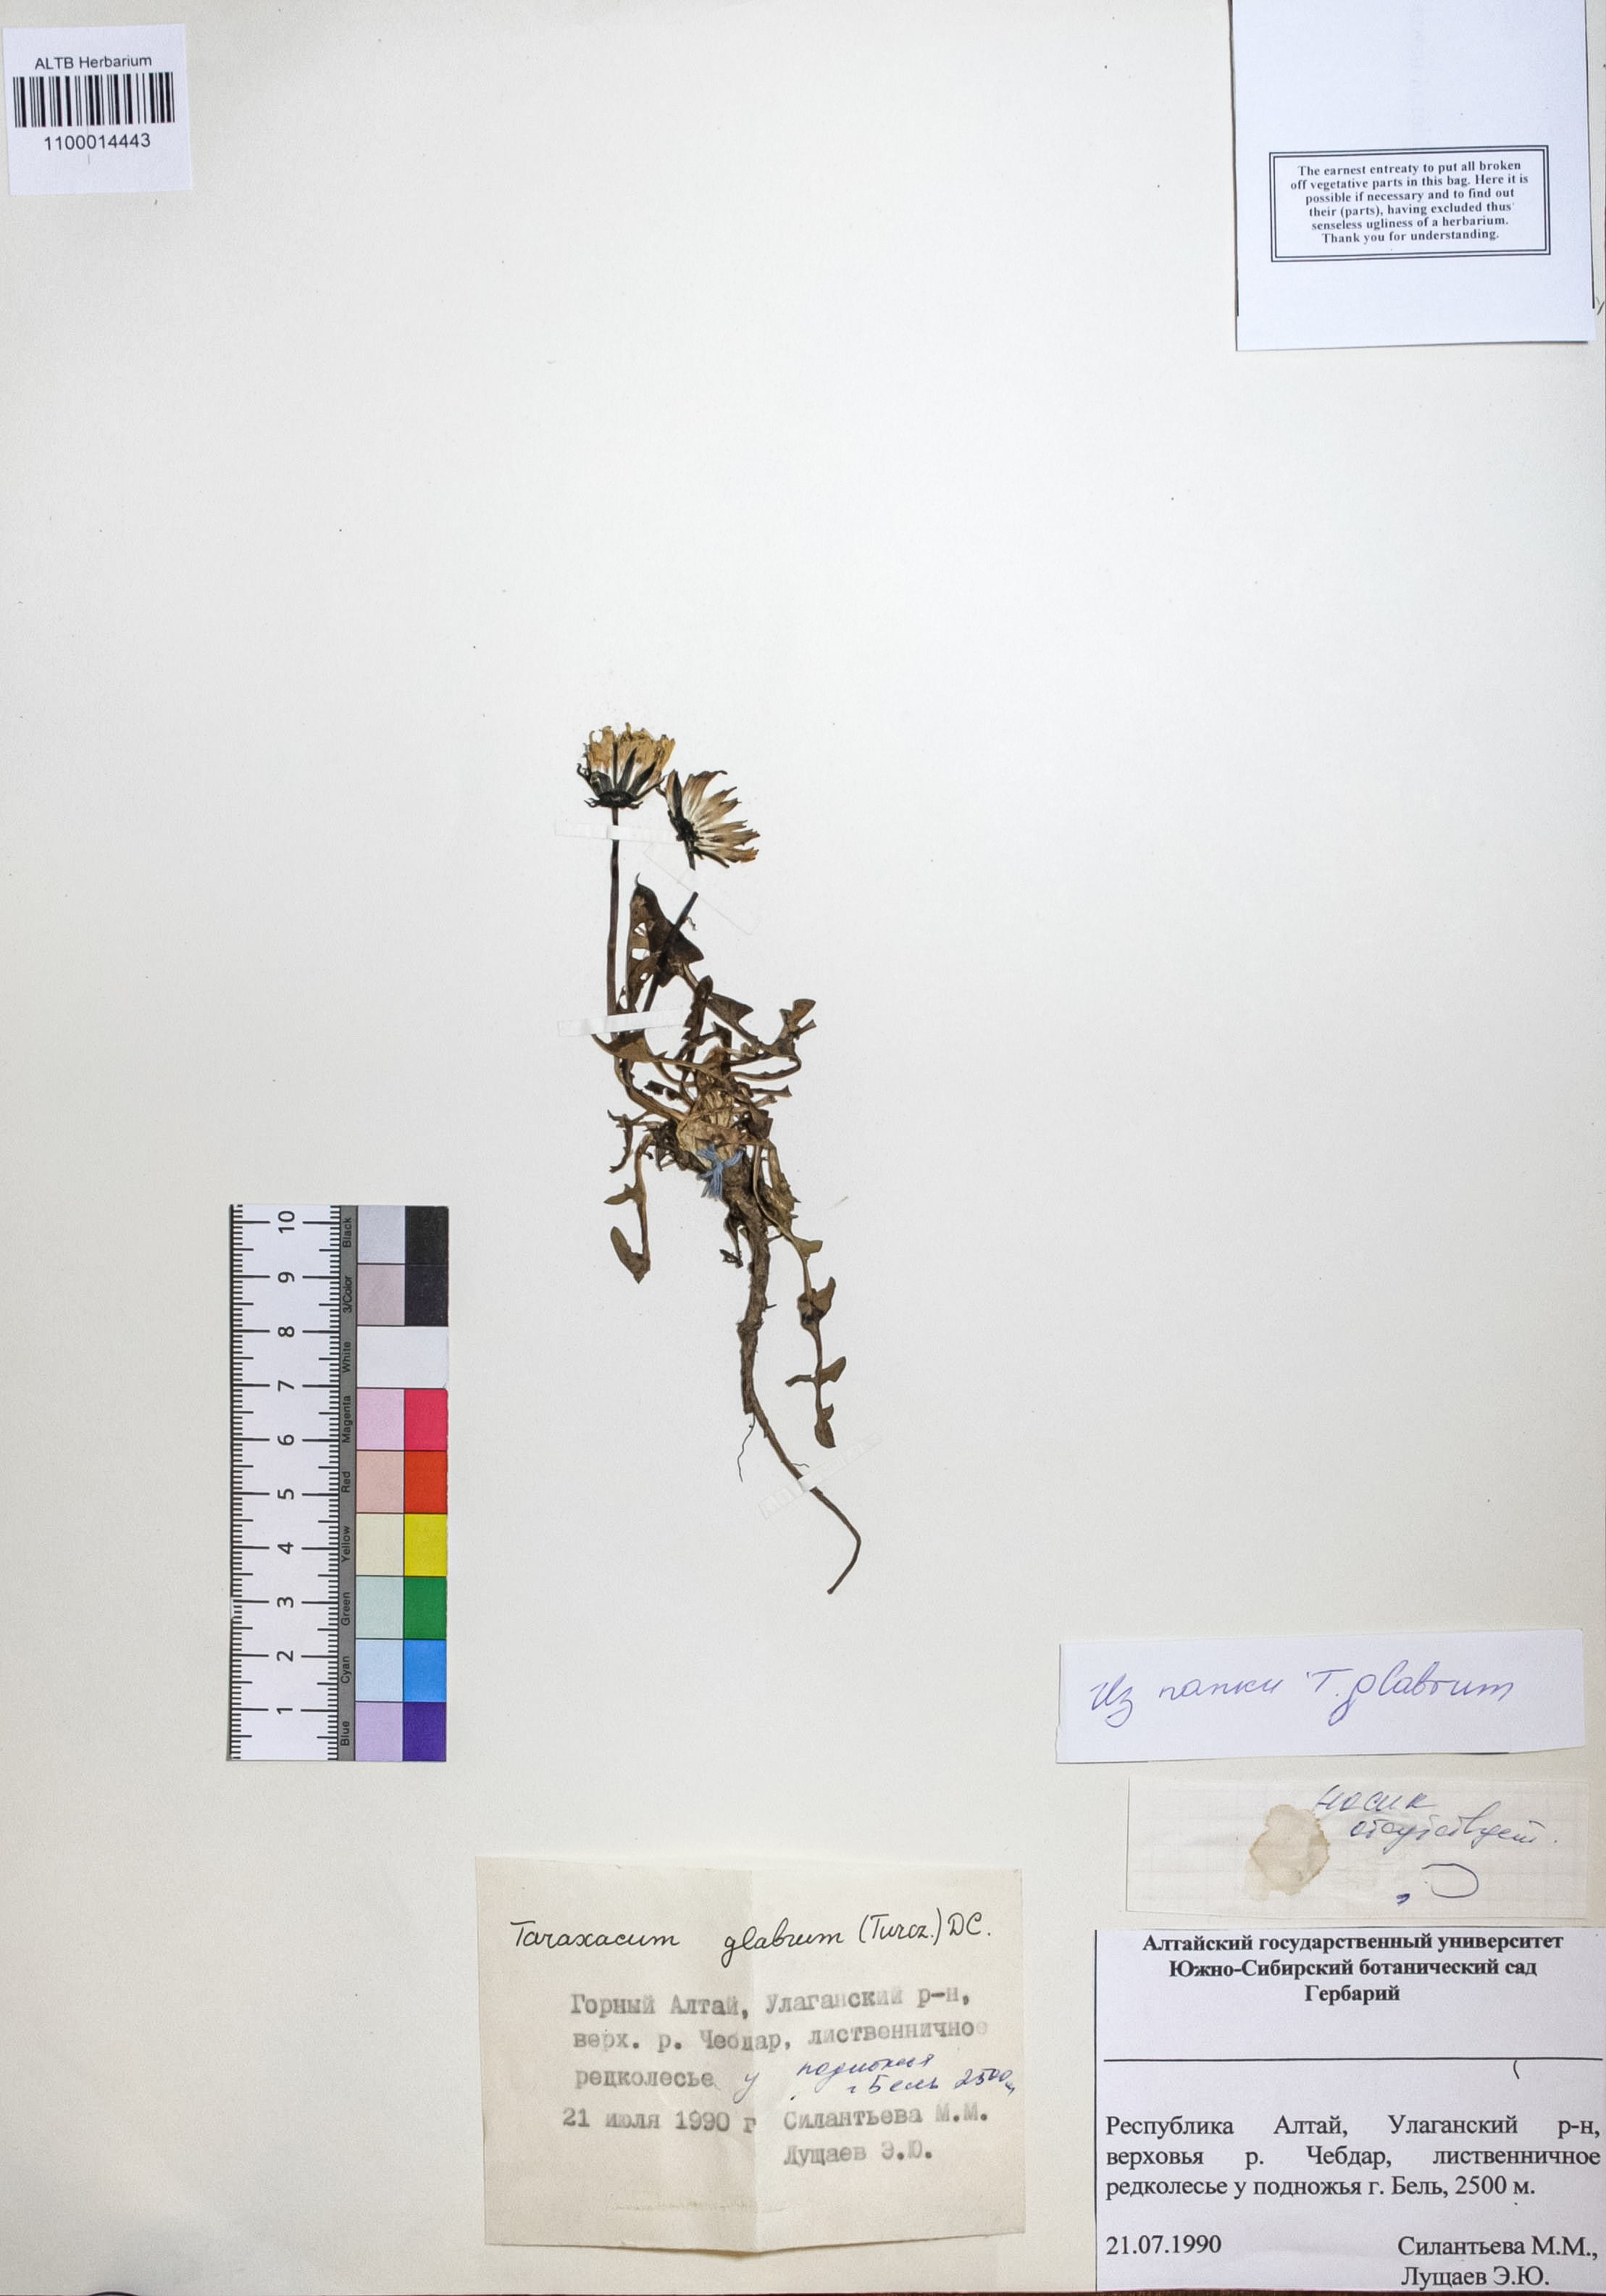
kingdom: Plantae
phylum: Tracheophyta
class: Magnoliopsida
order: Asterales
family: Asteraceae
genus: Taraxacum
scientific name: Taraxacum glabrum
